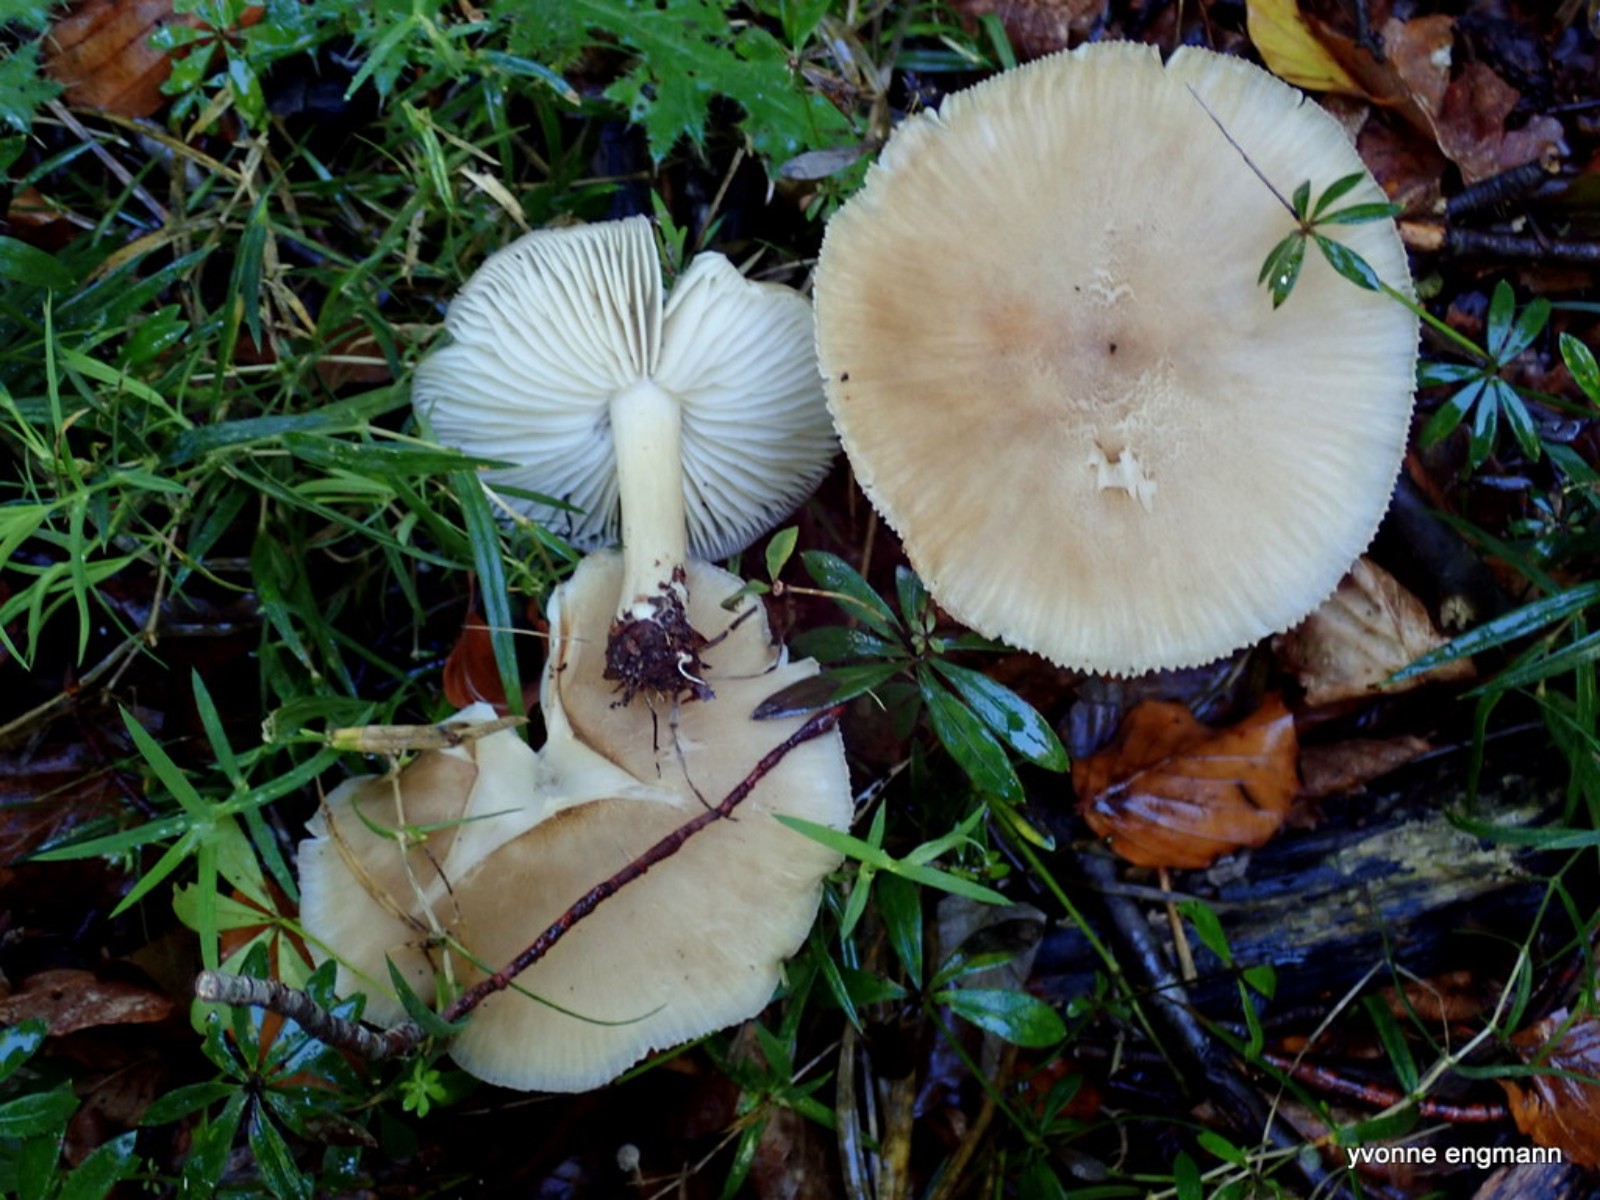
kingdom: Fungi
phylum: Basidiomycota
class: Agaricomycetes
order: Agaricales
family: Tricholomataceae
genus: Megacollybia
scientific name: Megacollybia platyphylla
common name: bredbladet væbnerhat
